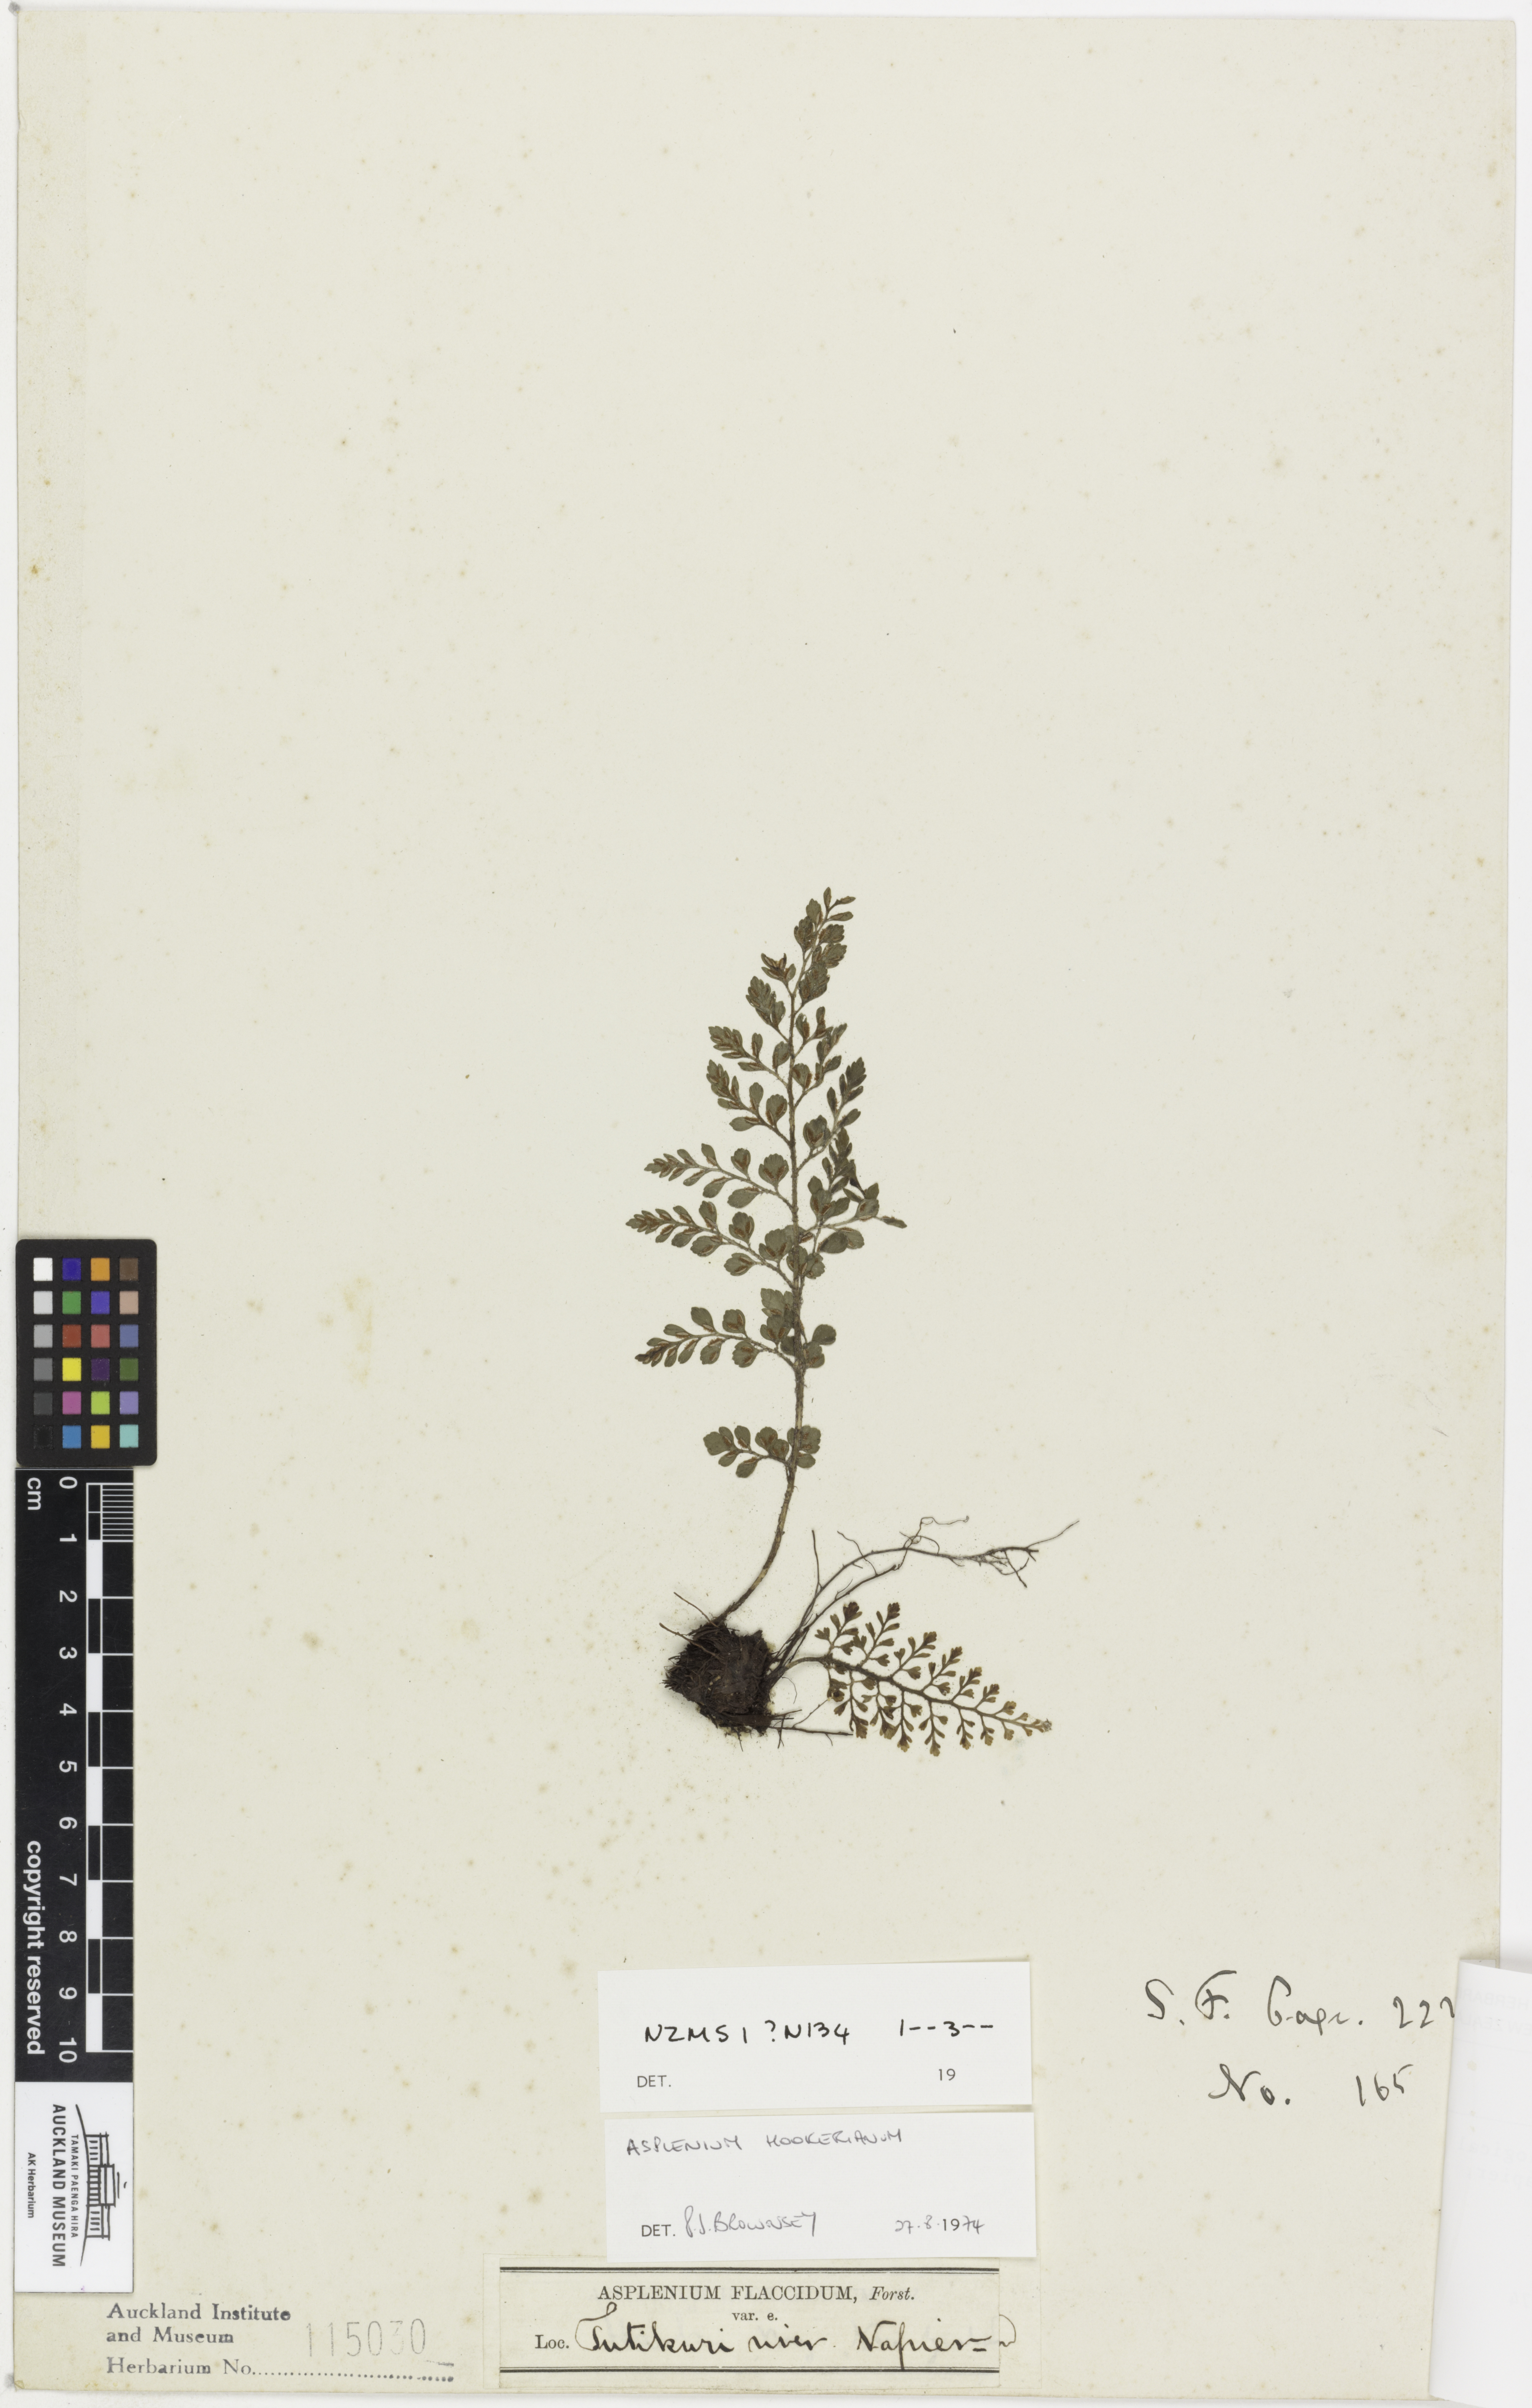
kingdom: Plantae
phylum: Tracheophyta
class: Polypodiopsida
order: Polypodiales
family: Aspleniaceae
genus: Asplenium
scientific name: Asplenium hookerianum
